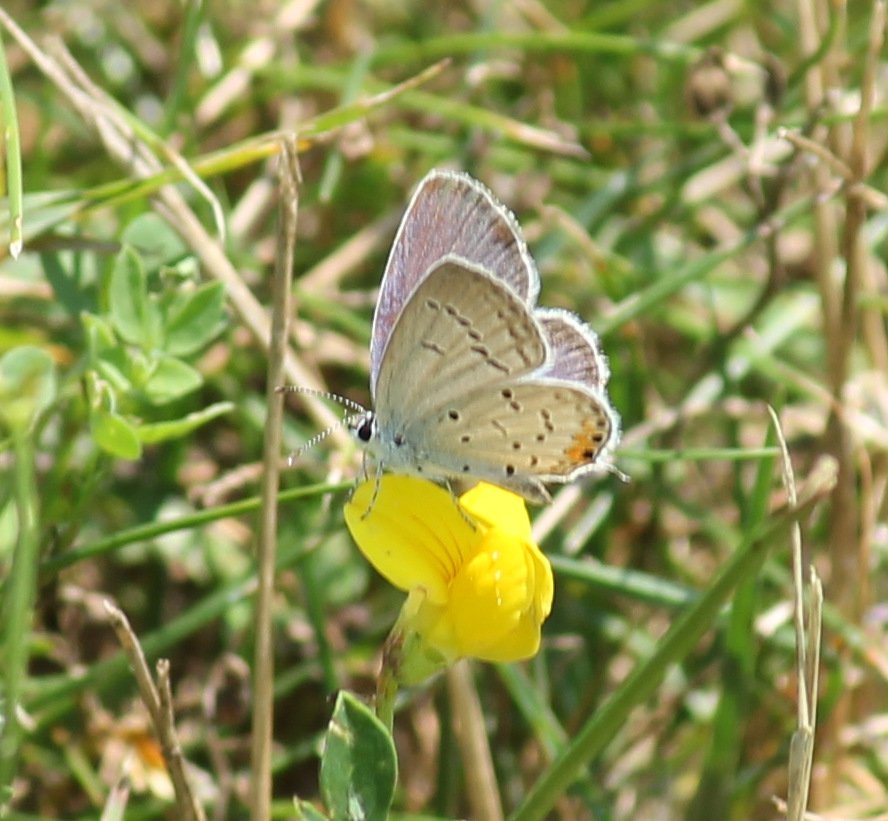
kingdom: Animalia
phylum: Arthropoda
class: Insecta
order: Lepidoptera
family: Lycaenidae
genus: Elkalyce
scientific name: Elkalyce comyntas
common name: Eastern Tailed-Blue
